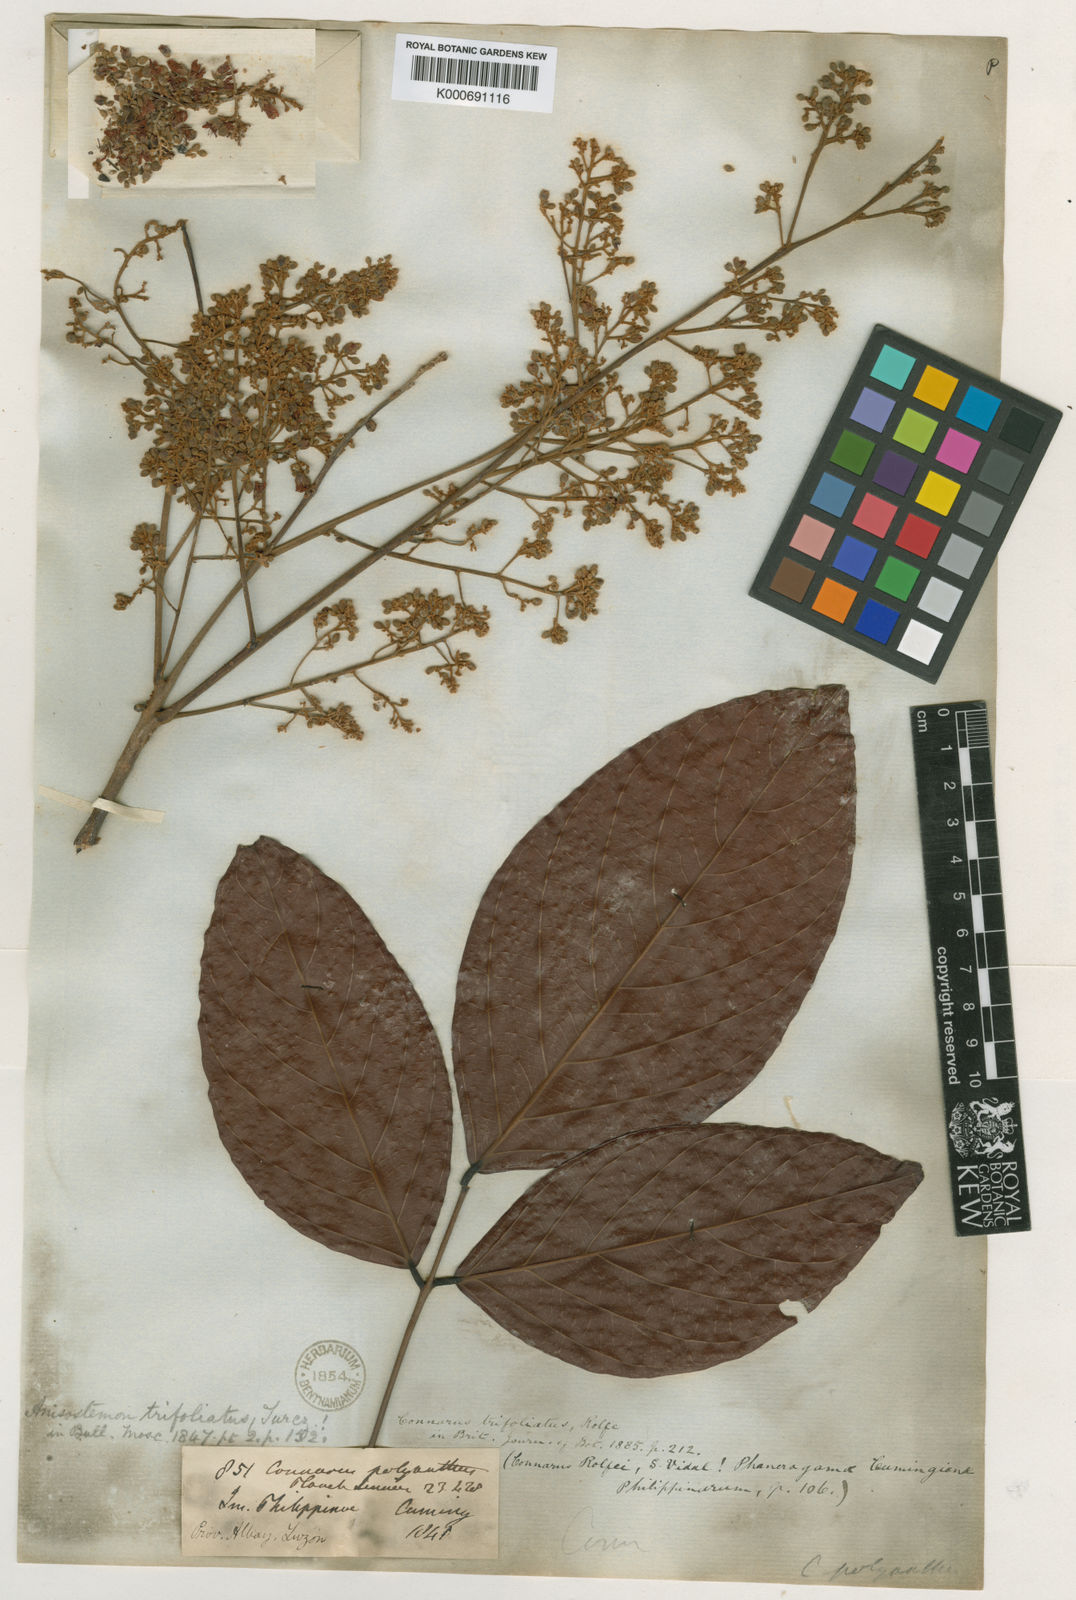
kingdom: Plantae
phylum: Tracheophyta
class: Magnoliopsida
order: Oxalidales
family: Connaraceae
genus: Connarus
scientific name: Connarus grandis
